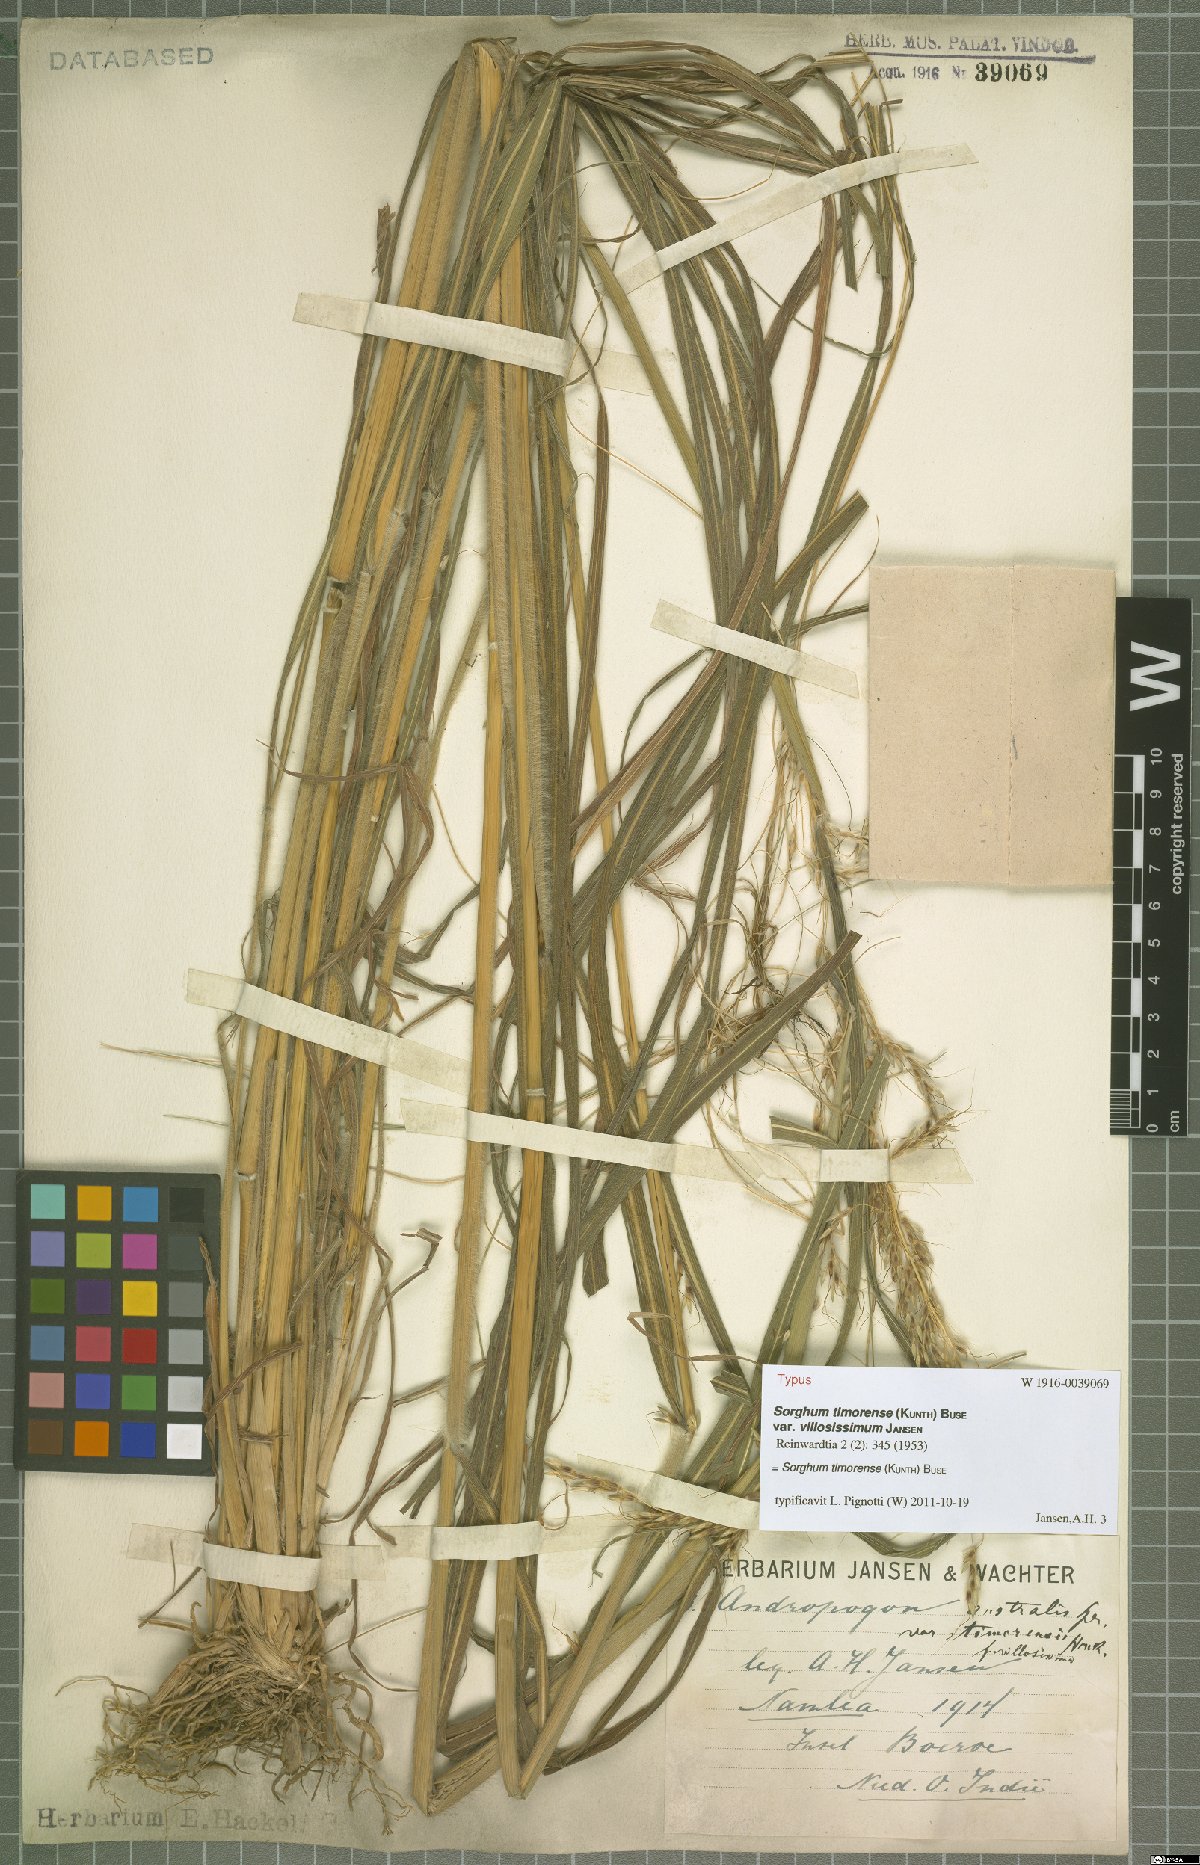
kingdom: Plantae
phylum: Tracheophyta
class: Liliopsida
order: Poales
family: Poaceae
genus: Sarga
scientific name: Sarga timorensis
